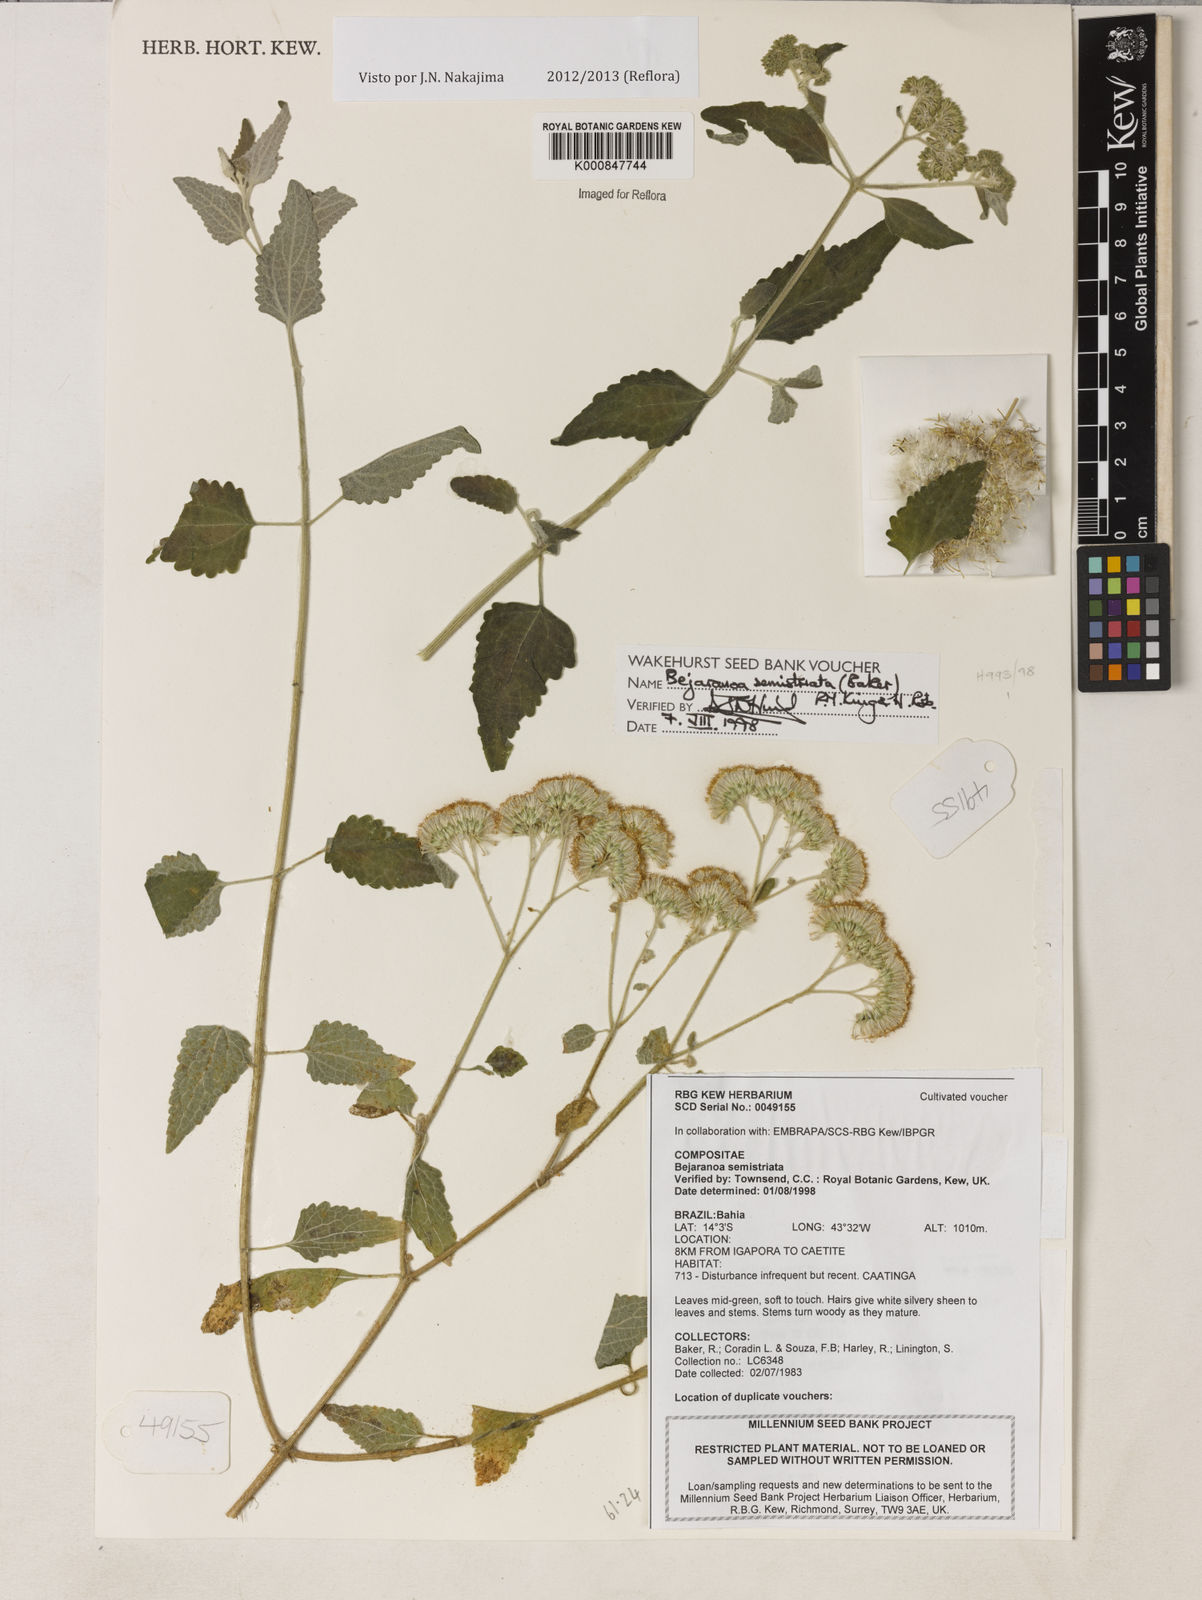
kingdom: Plantae
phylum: Tracheophyta
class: Magnoliopsida
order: Asterales
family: Asteraceae
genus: Bejaranoa
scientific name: Bejaranoa semistriata
